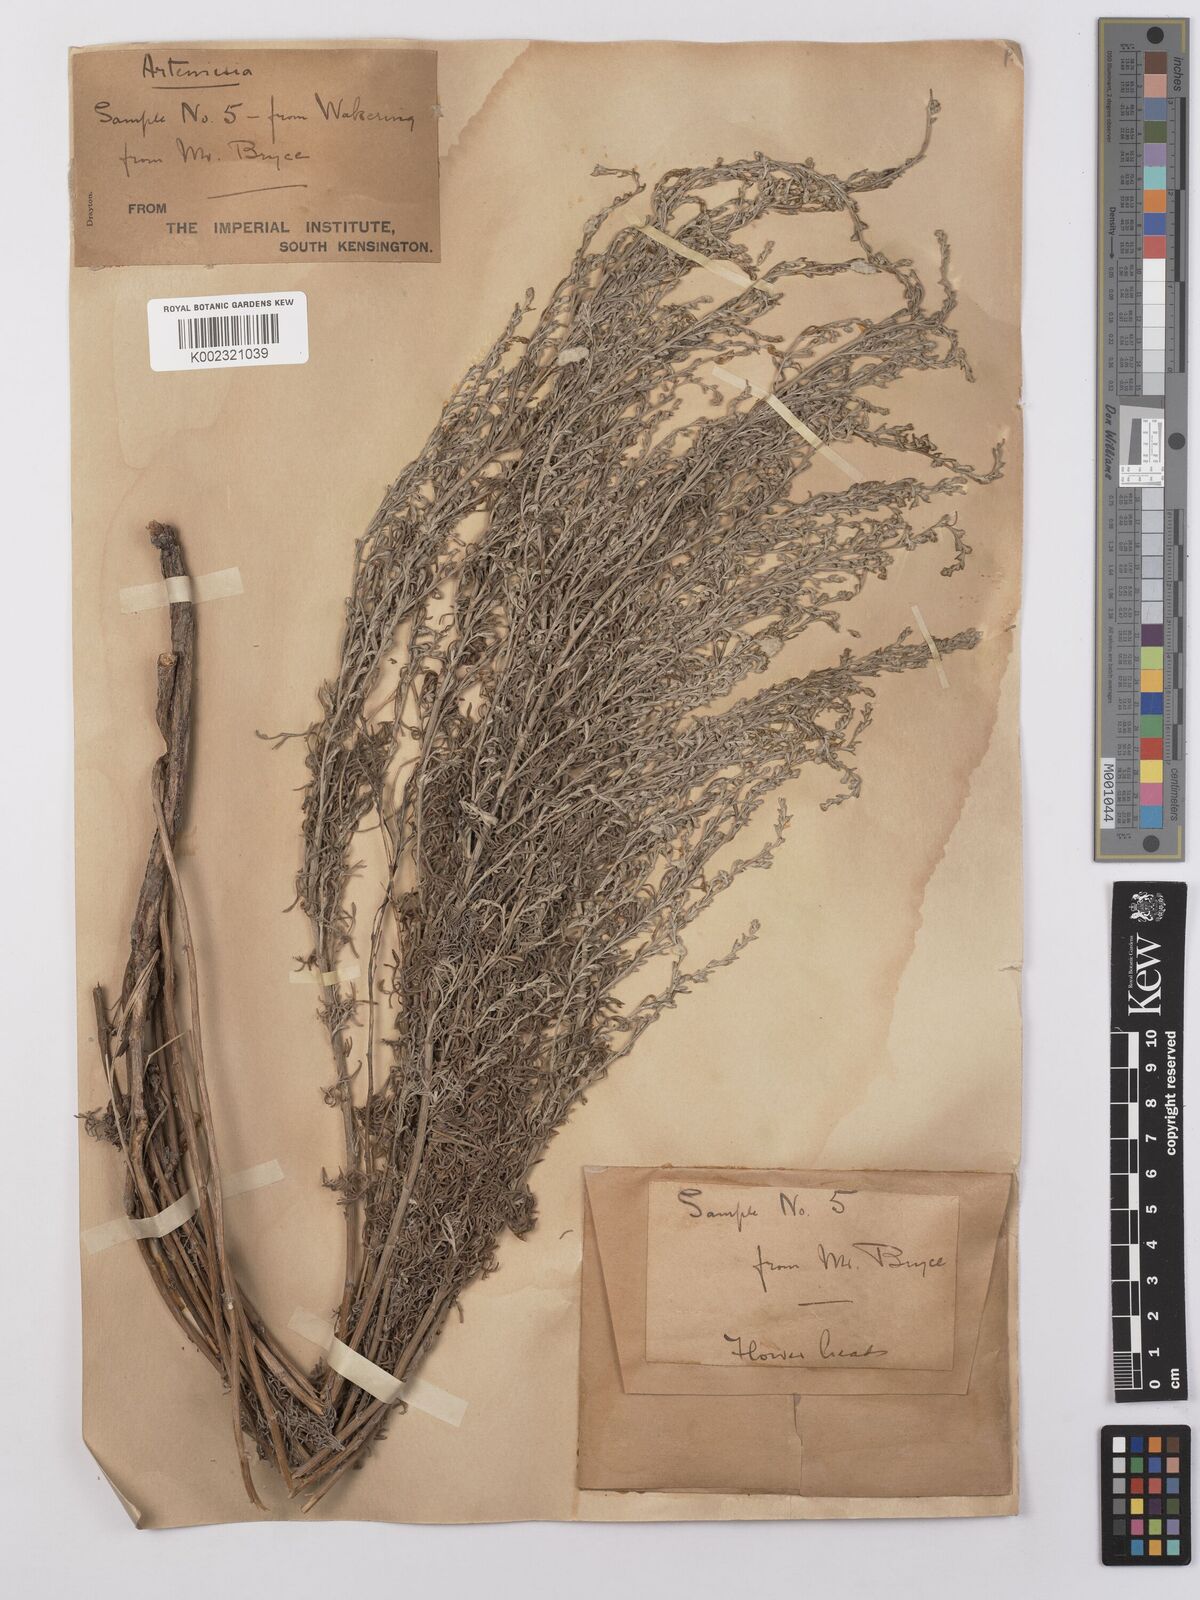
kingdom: Plantae
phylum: Tracheophyta
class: Magnoliopsida
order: Asterales
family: Asteraceae
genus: Artemisia
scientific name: Artemisia maritima
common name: Wormseed
